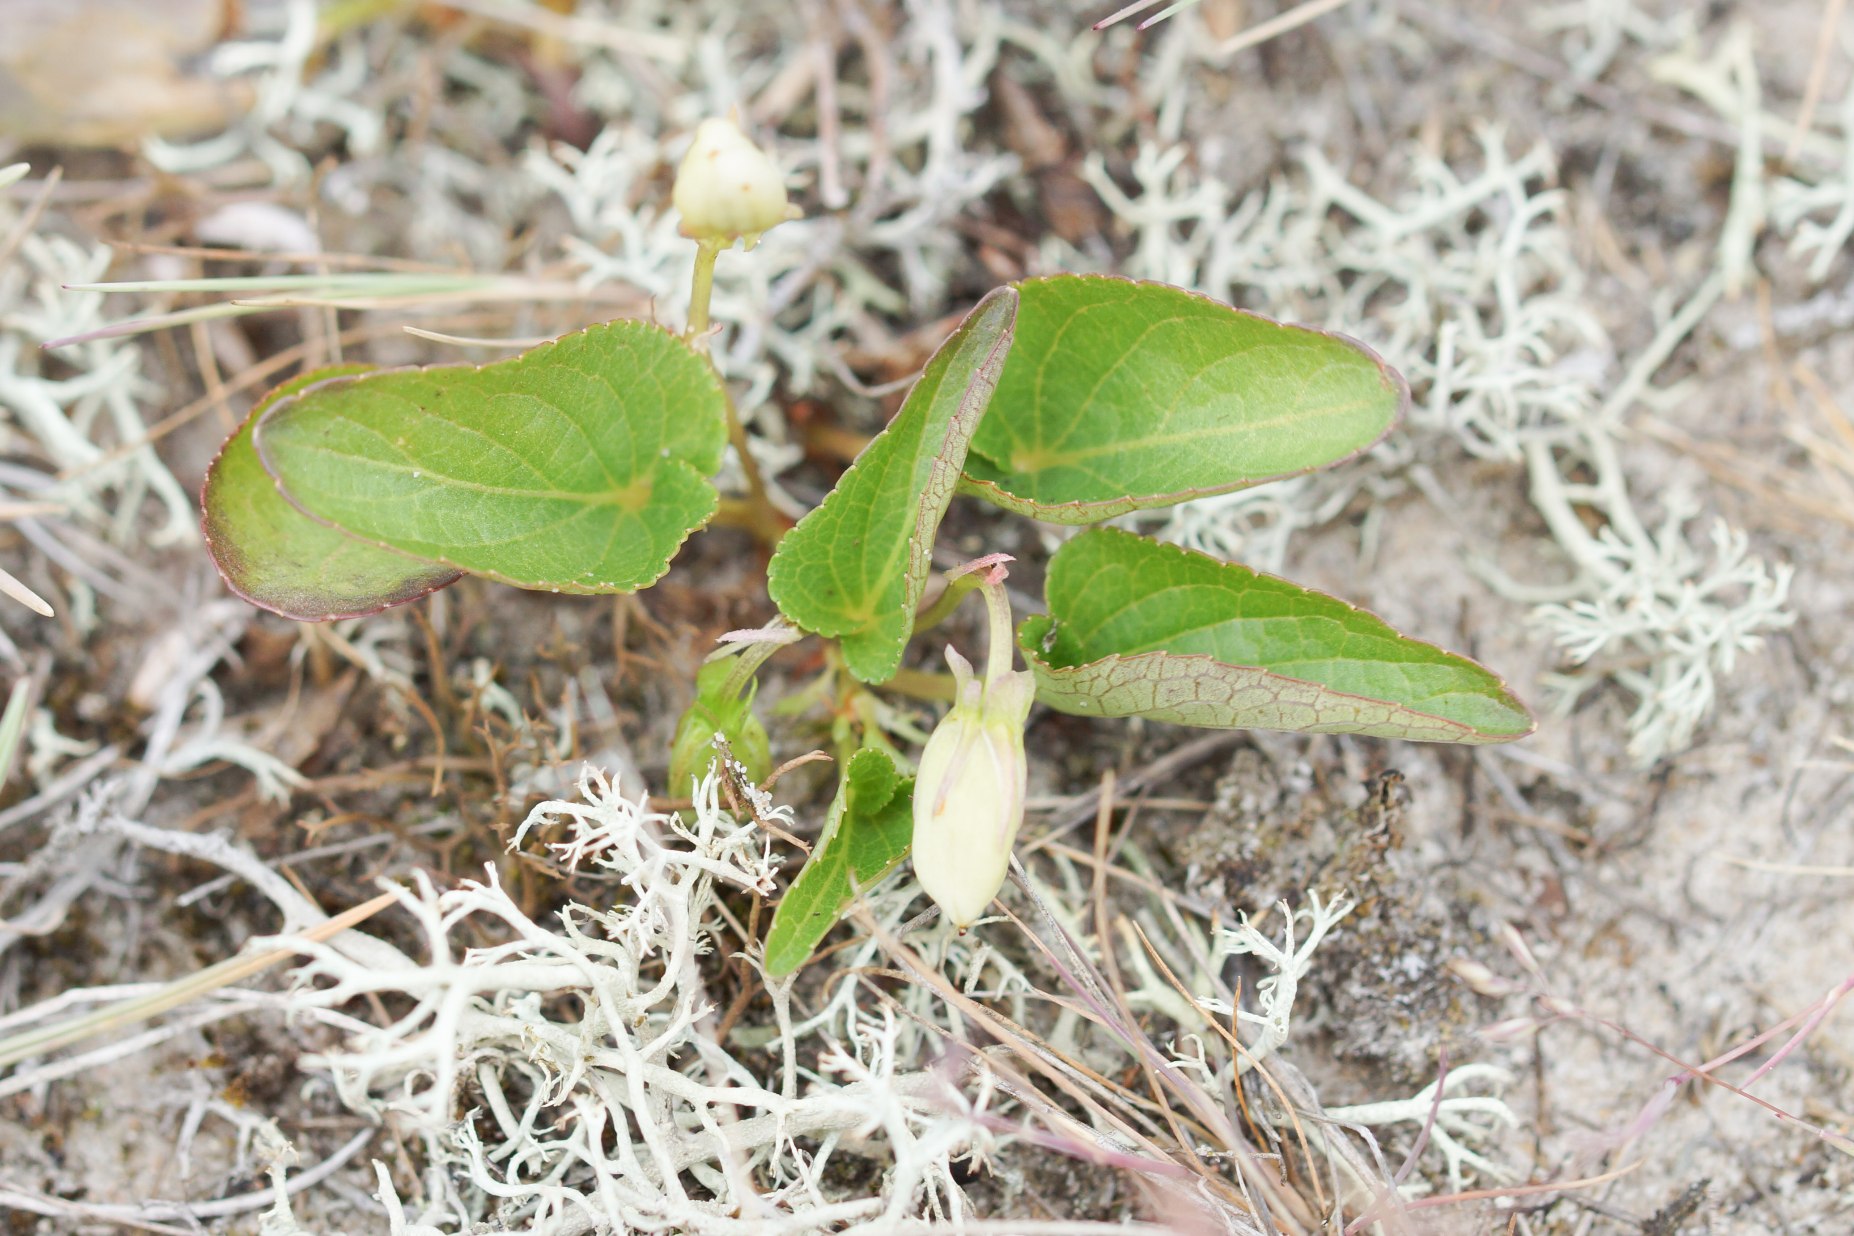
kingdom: Plantae
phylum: Tracheophyta
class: Magnoliopsida
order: Malpighiales
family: Violaceae
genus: Viola
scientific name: Viola canina
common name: Hunde-viol
